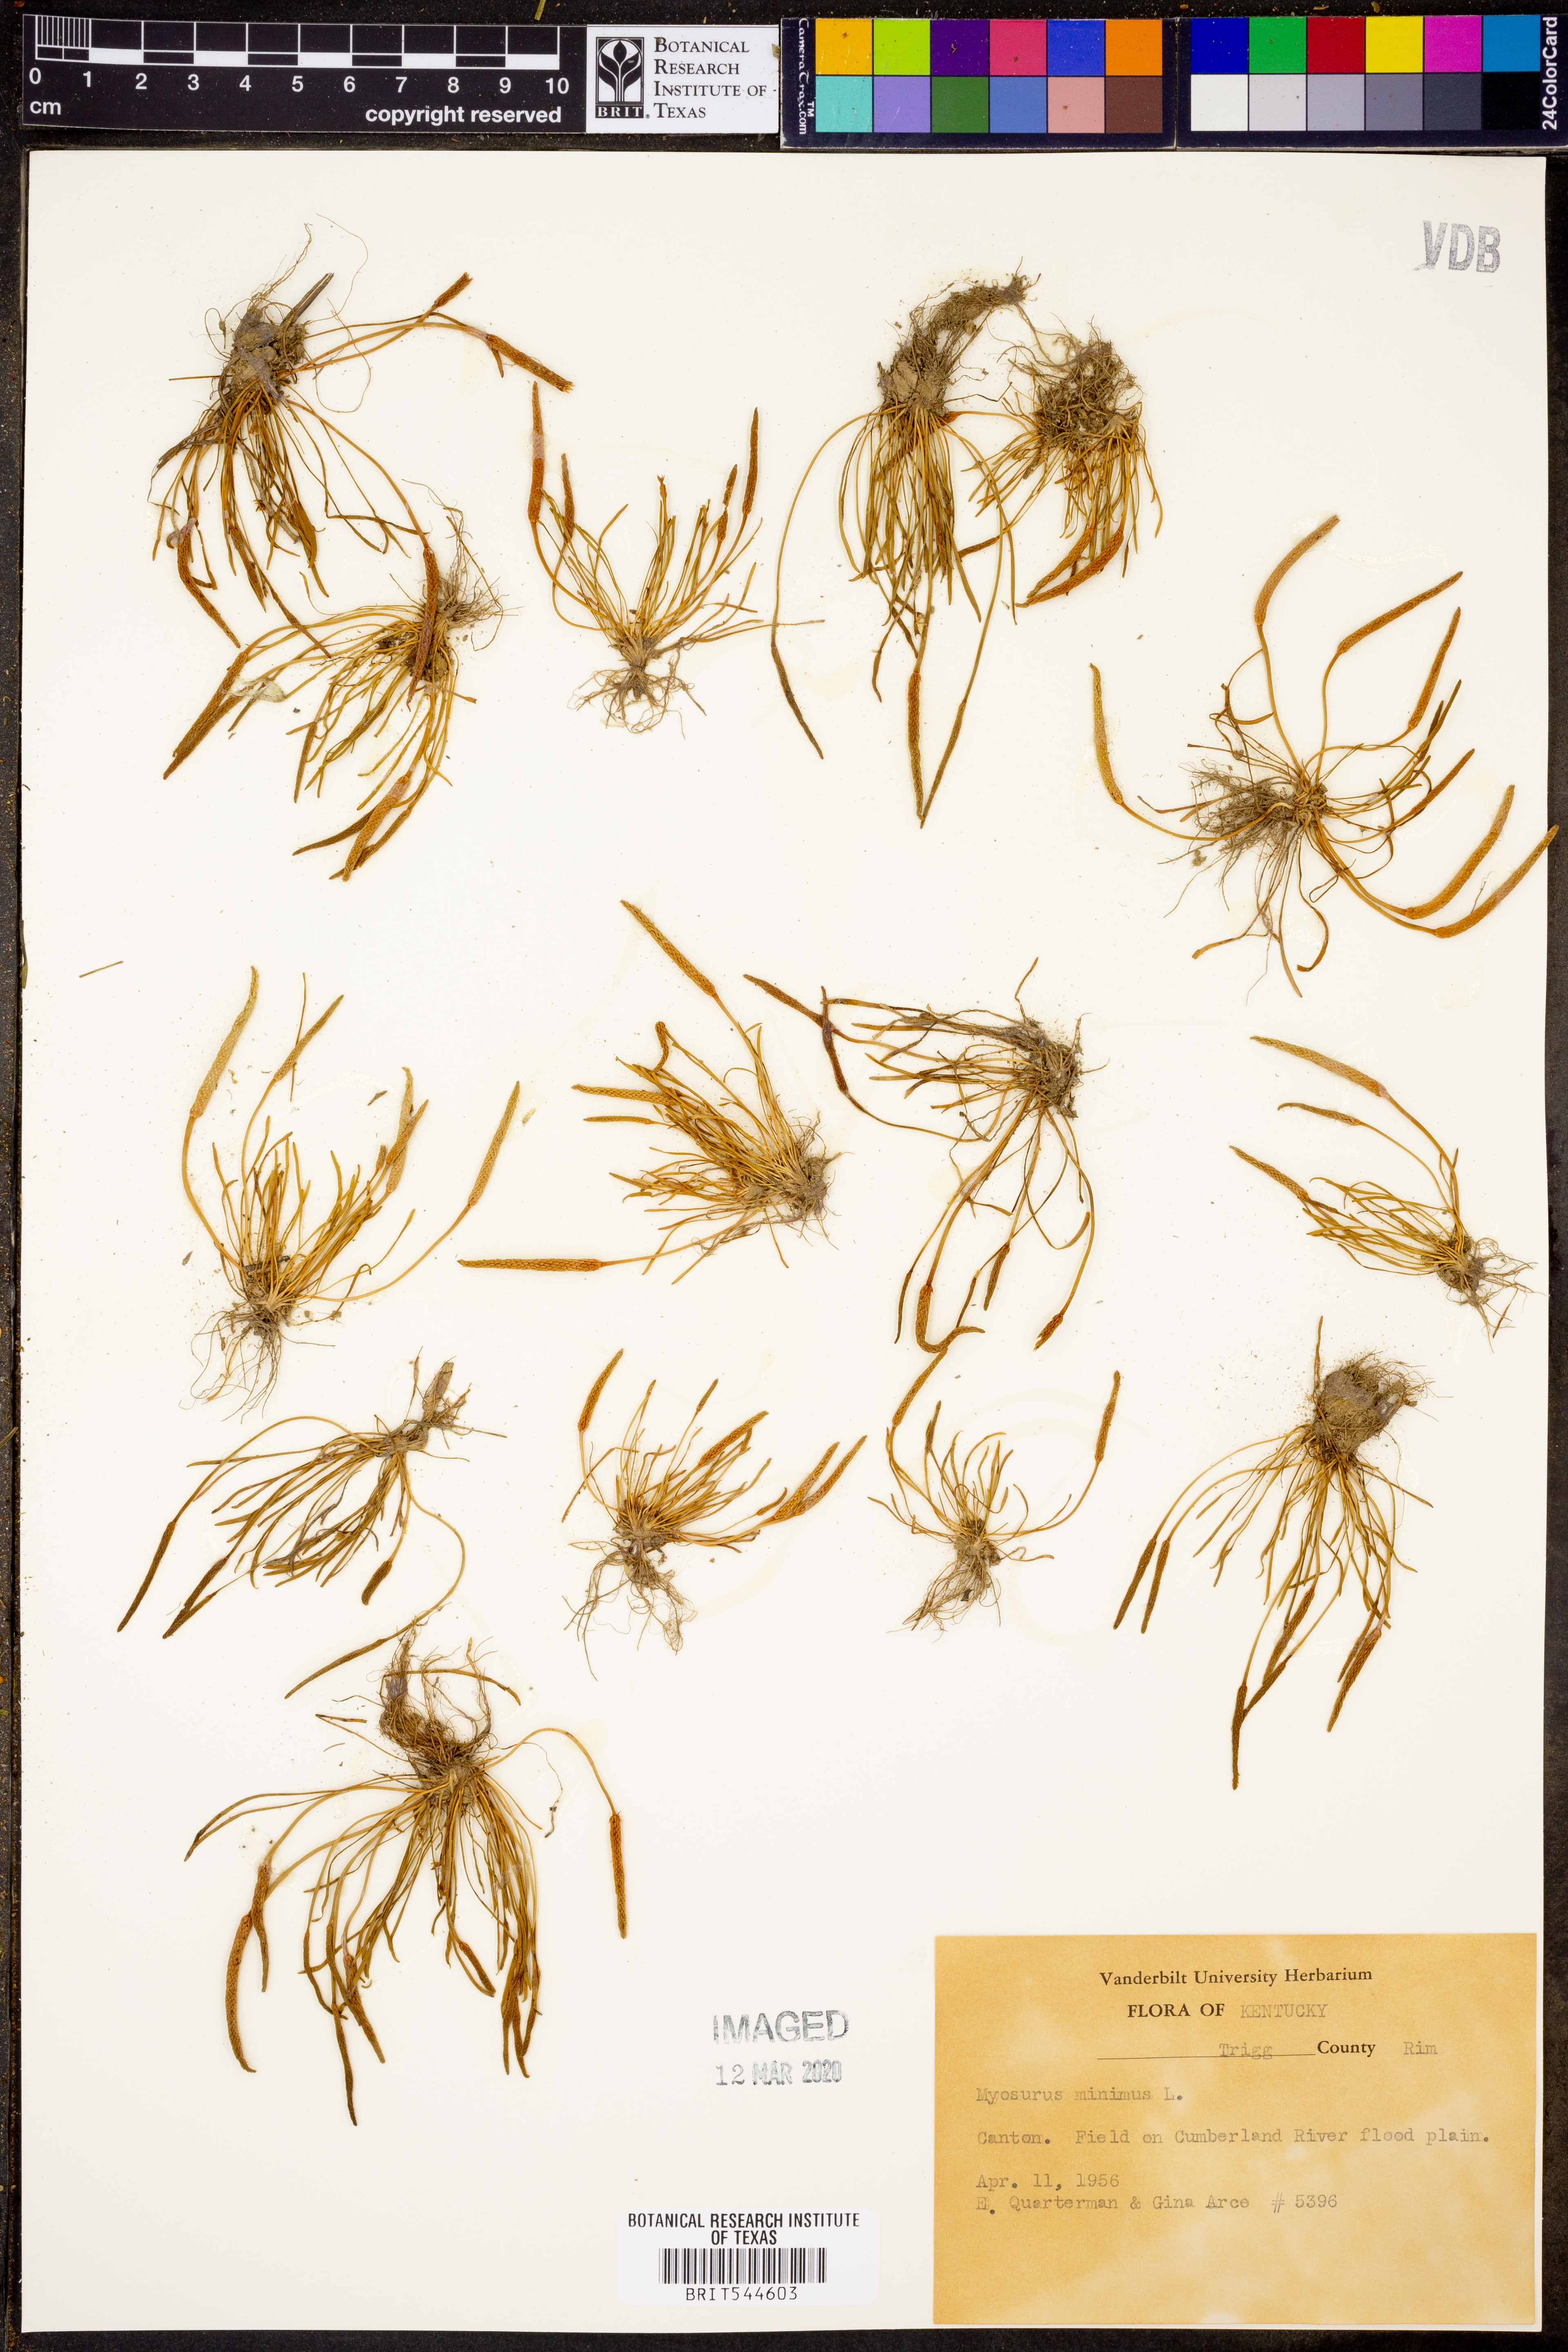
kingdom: Plantae
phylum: Tracheophyta
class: Magnoliopsida
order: Ranunculales
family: Ranunculaceae
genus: Myosurus
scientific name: Myosurus minimus
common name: Mousetail
